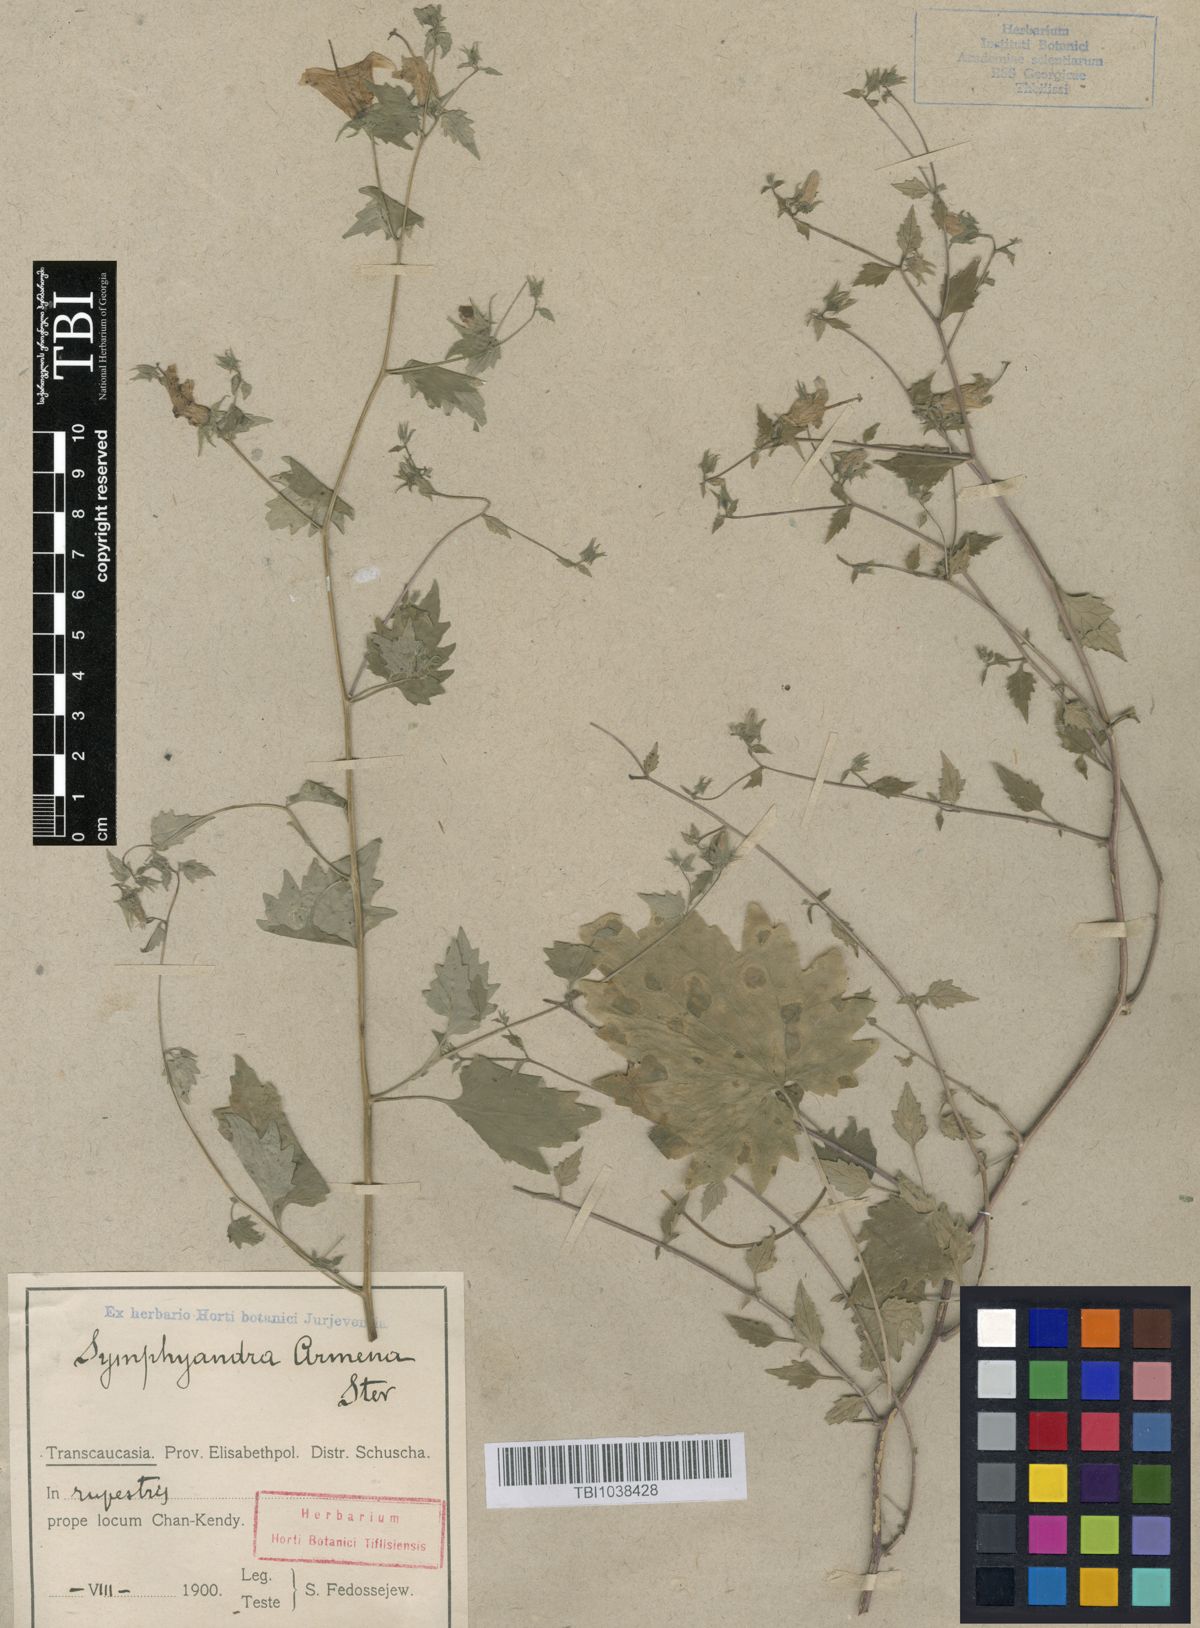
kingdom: Plantae
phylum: Tracheophyta
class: Magnoliopsida
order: Asterales
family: Campanulaceae
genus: Campanula
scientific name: Campanula armena
